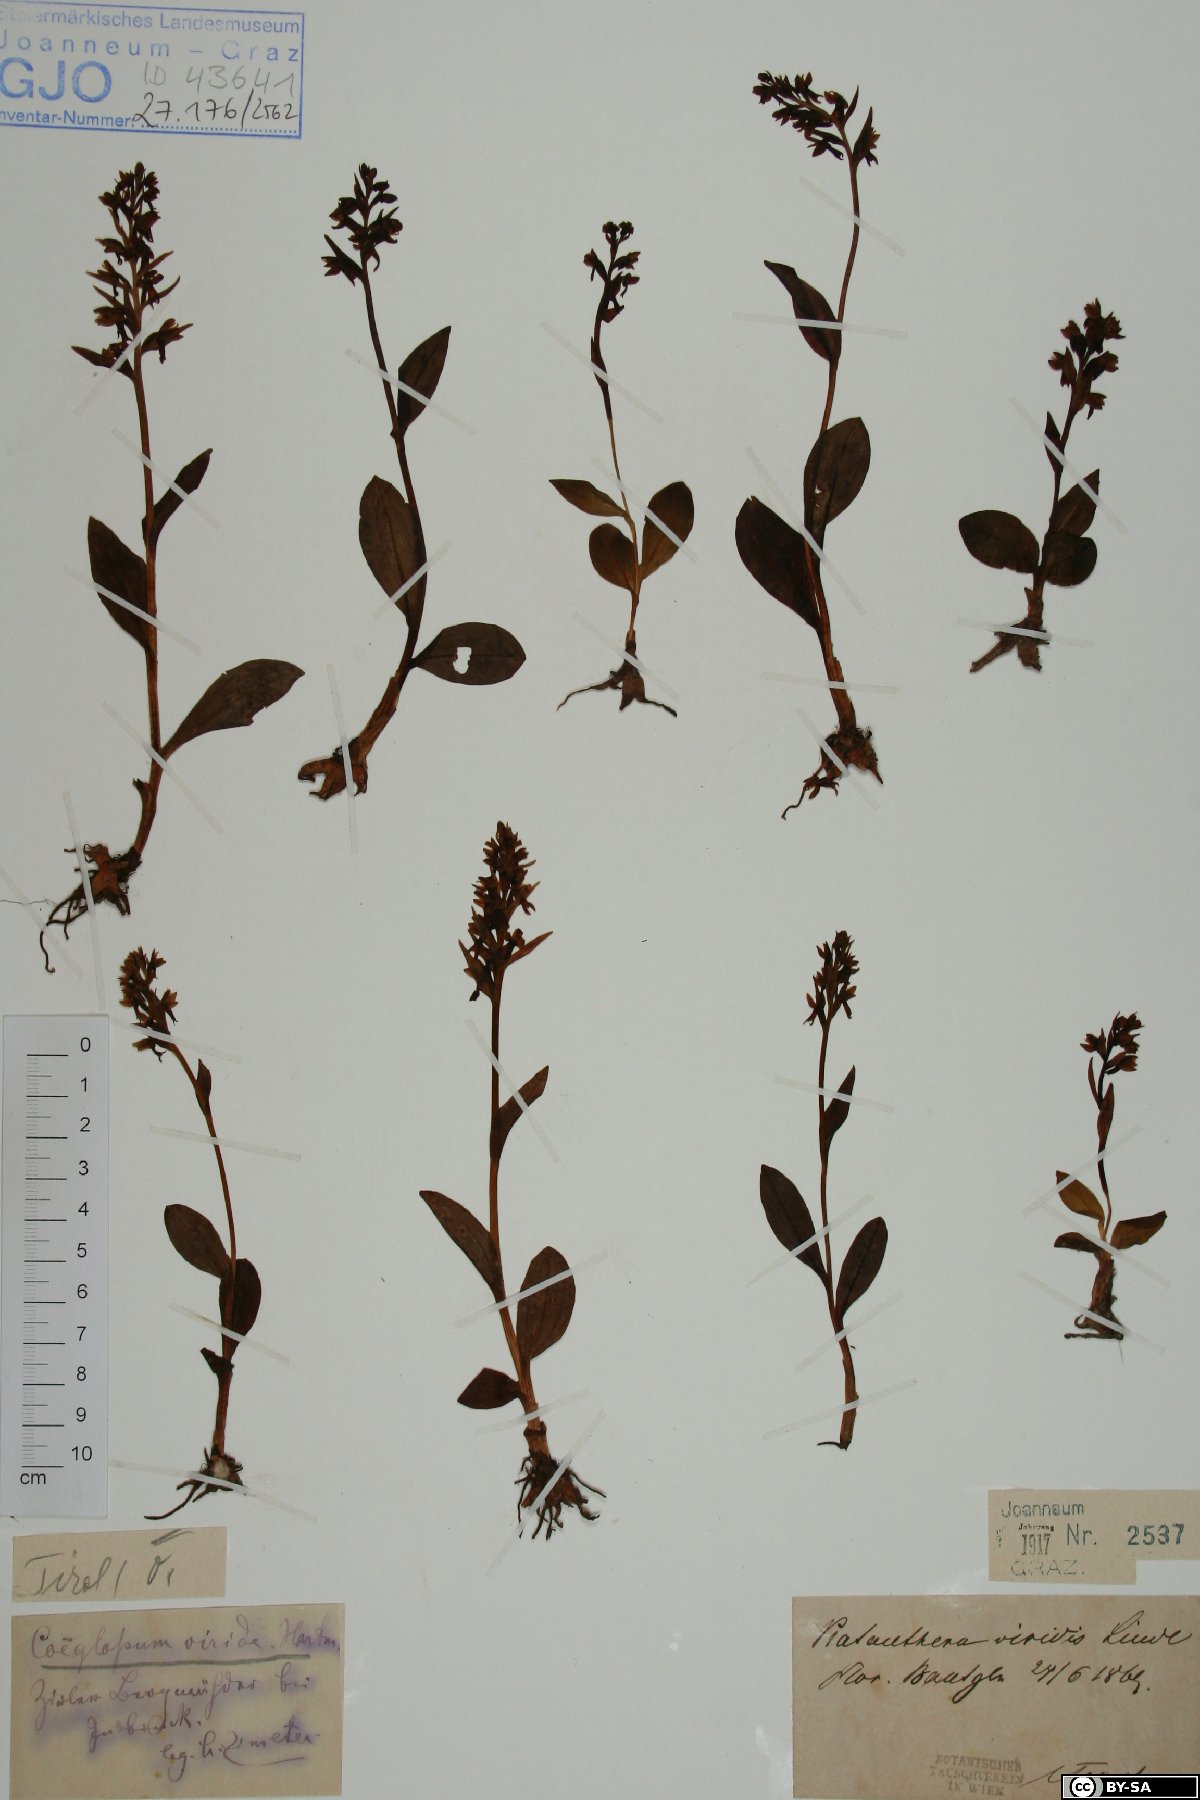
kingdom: Plantae
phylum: Tracheophyta
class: Liliopsida
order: Asparagales
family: Orchidaceae
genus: Dactylorhiza
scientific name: Dactylorhiza viridis
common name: Longbract frog orchid
